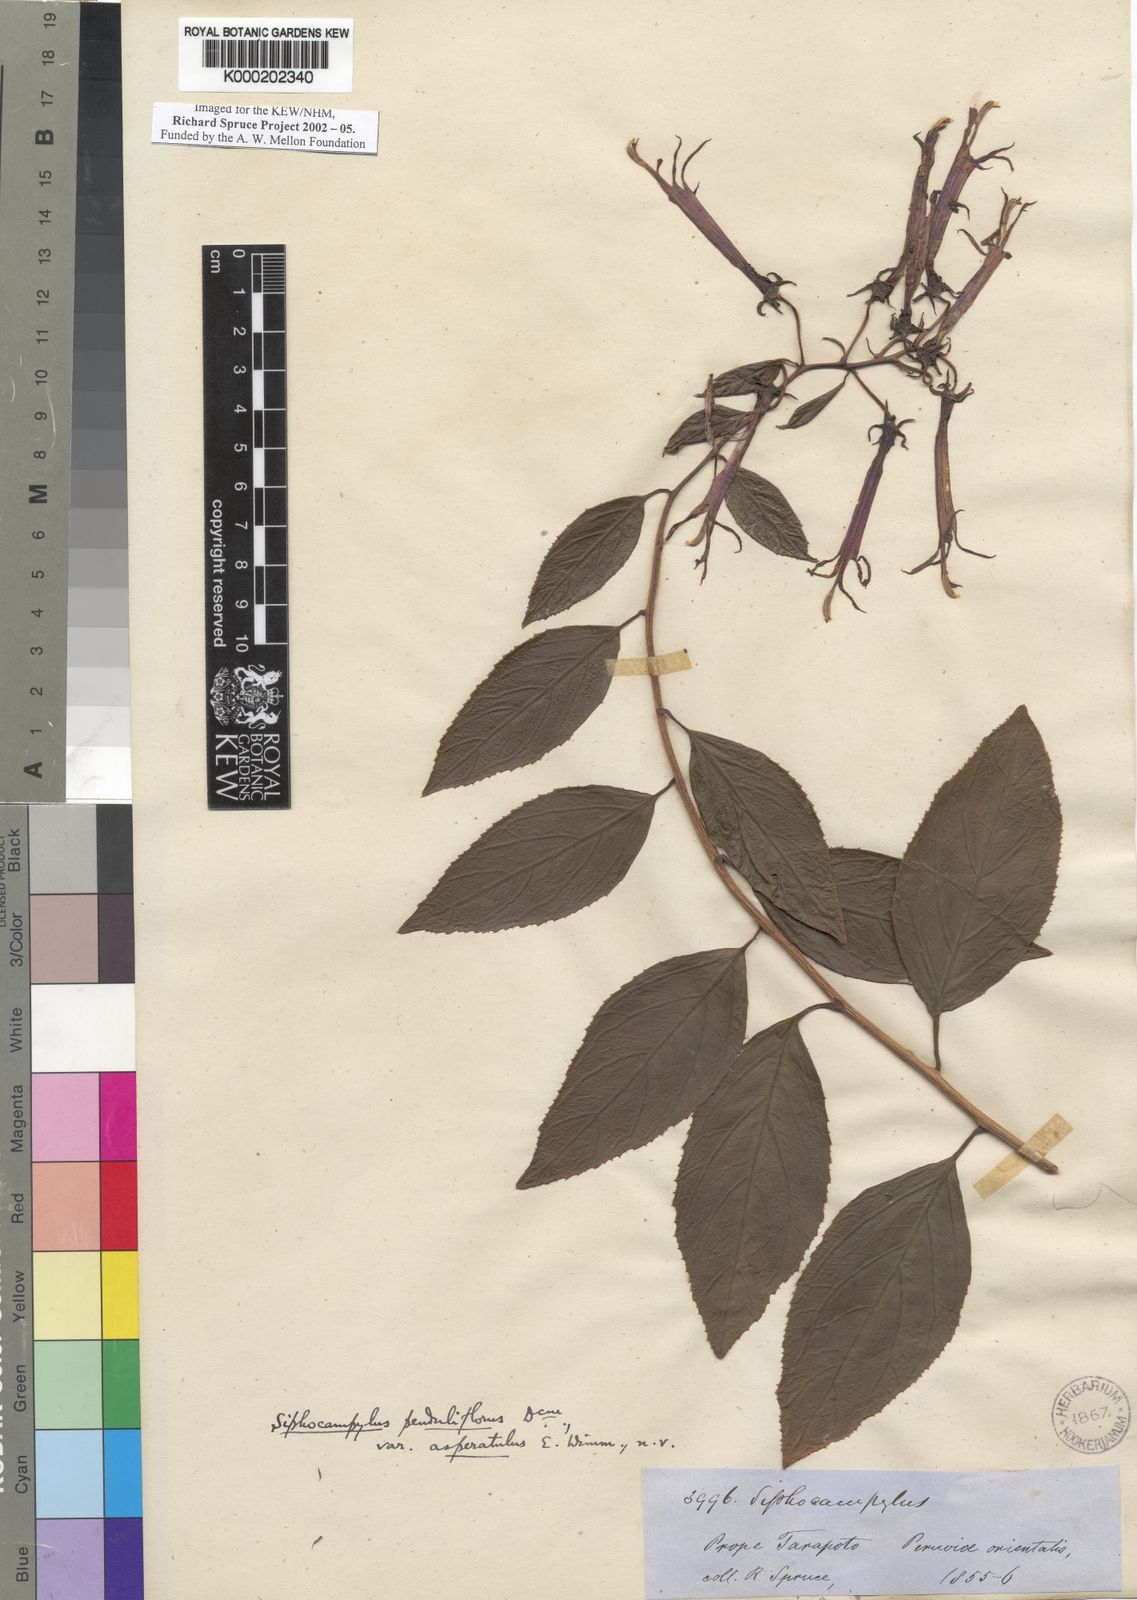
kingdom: Plantae
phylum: Tracheophyta
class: Magnoliopsida
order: Asterales
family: Campanulaceae
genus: Siphocampylus
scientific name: Siphocampylus penduliflorus
